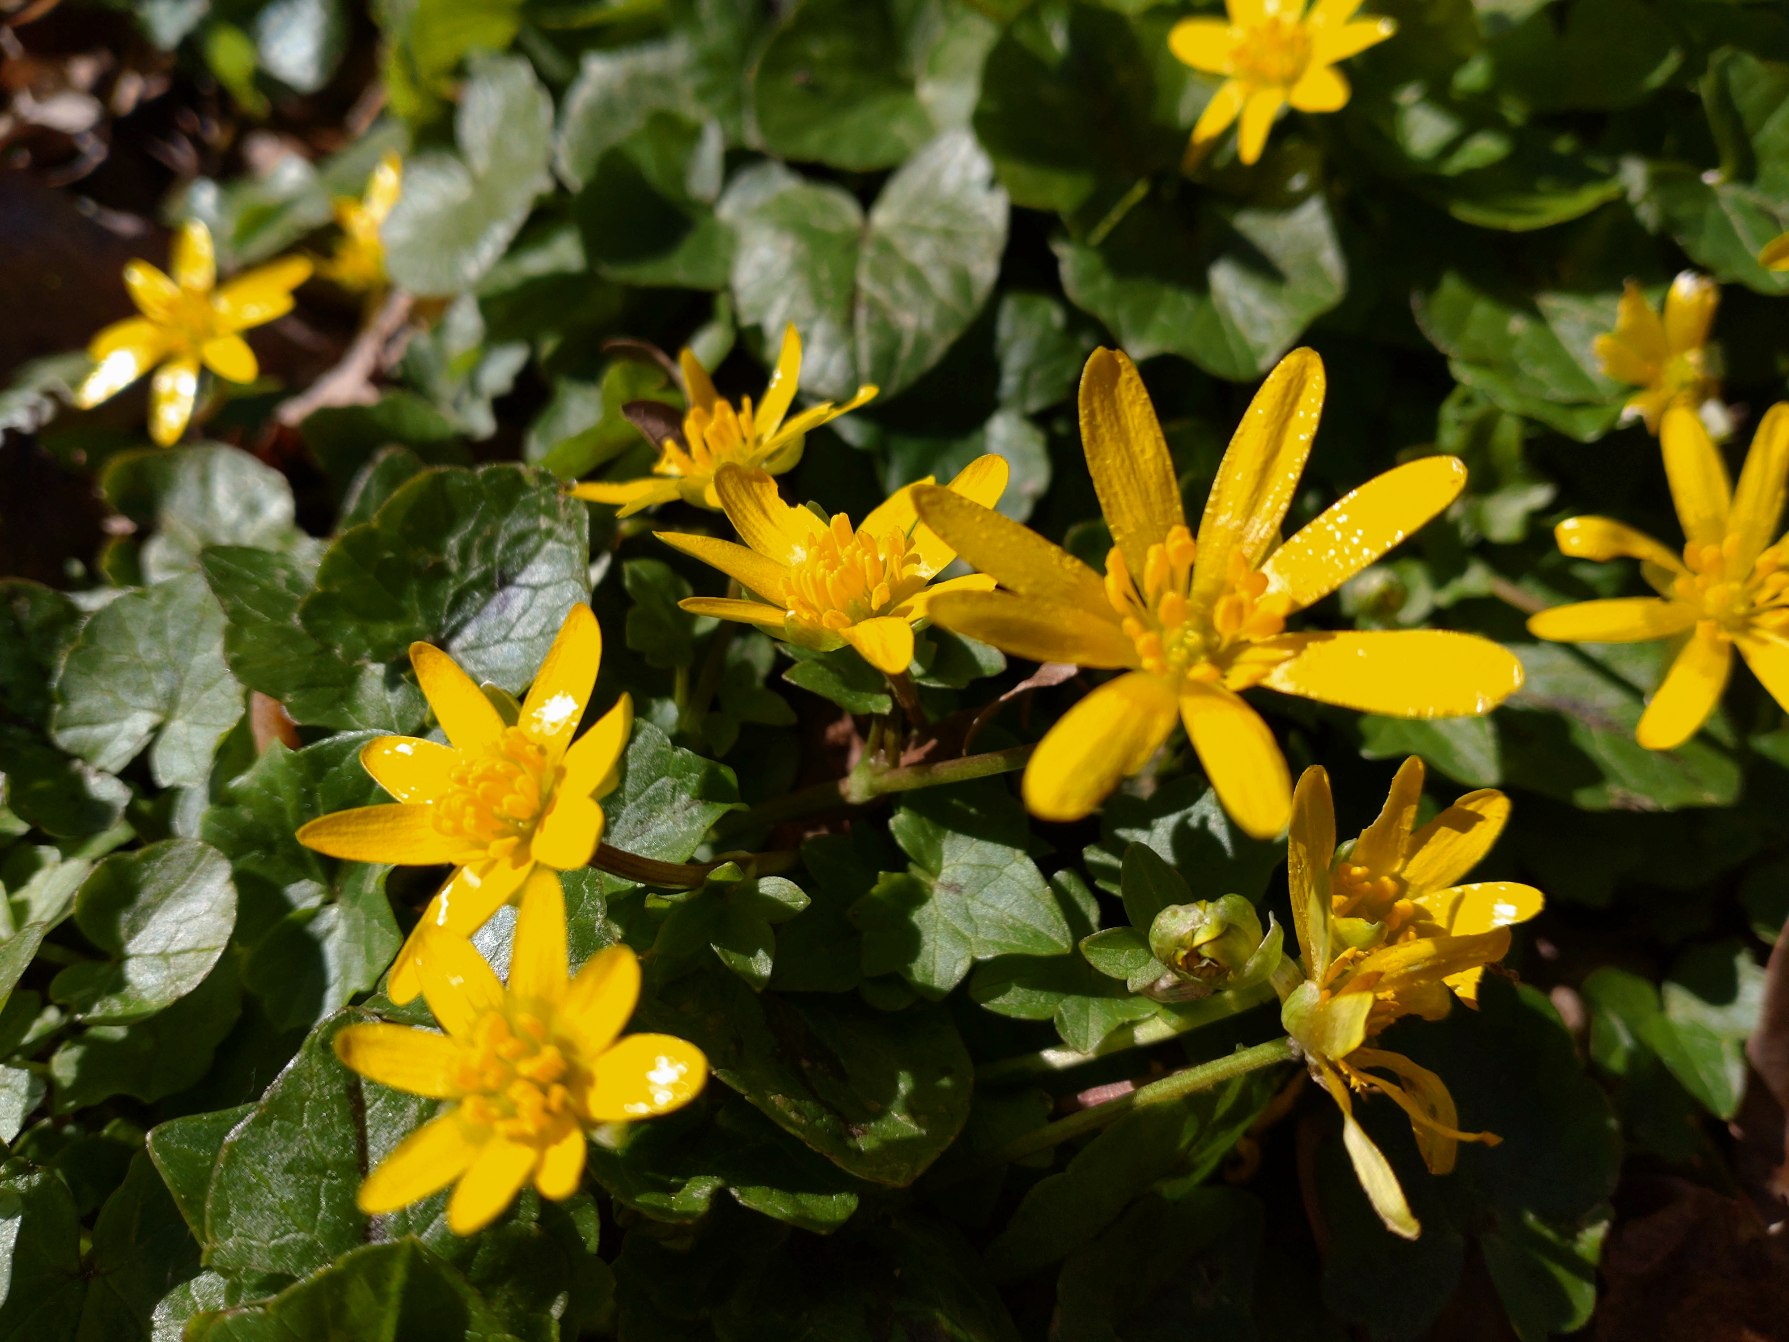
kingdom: Plantae
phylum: Tracheophyta
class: Magnoliopsida
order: Ranunculales
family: Ranunculaceae
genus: Ficaria
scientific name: Ficaria verna
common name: Vorterod
